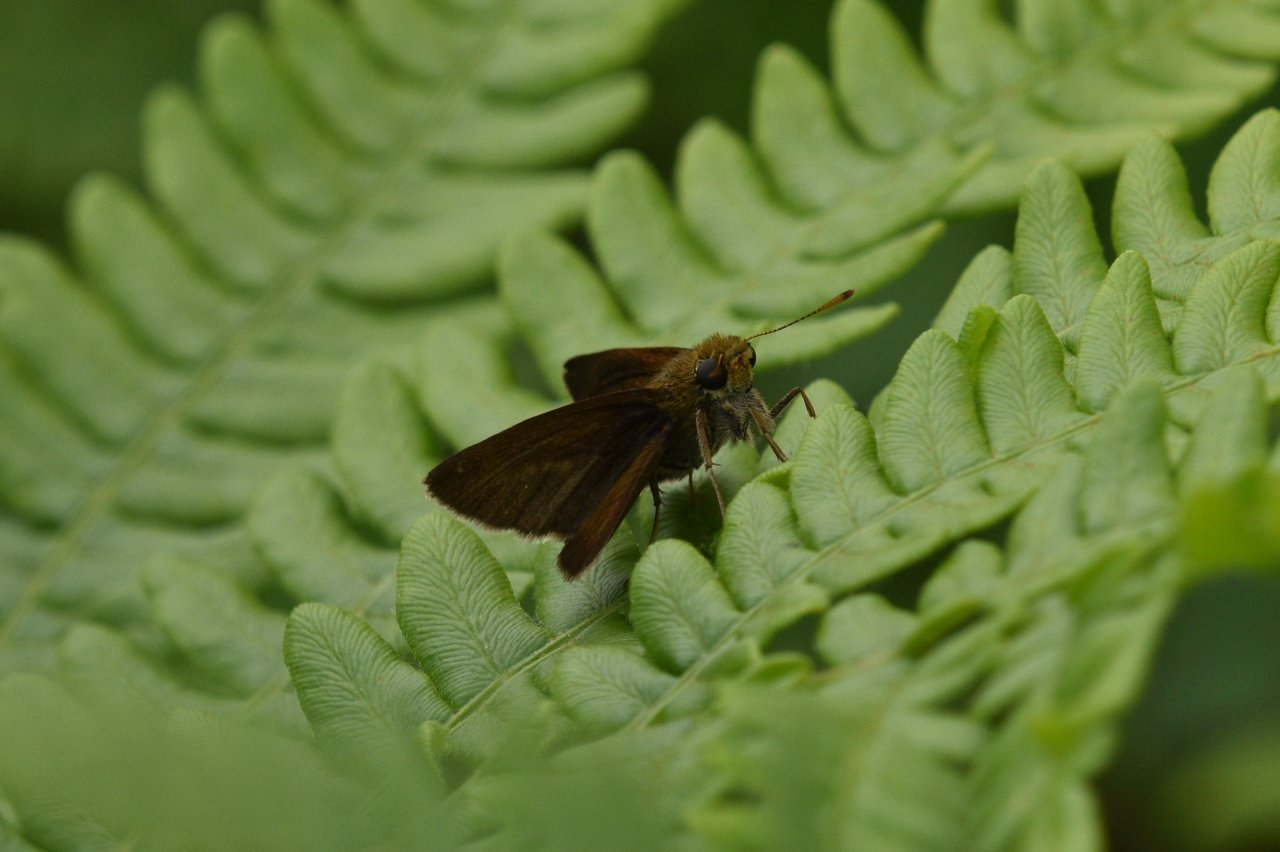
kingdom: Animalia
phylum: Arthropoda
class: Insecta
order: Lepidoptera
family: Hesperiidae
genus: Euphyes
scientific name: Euphyes vestris
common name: Dun Skipper
